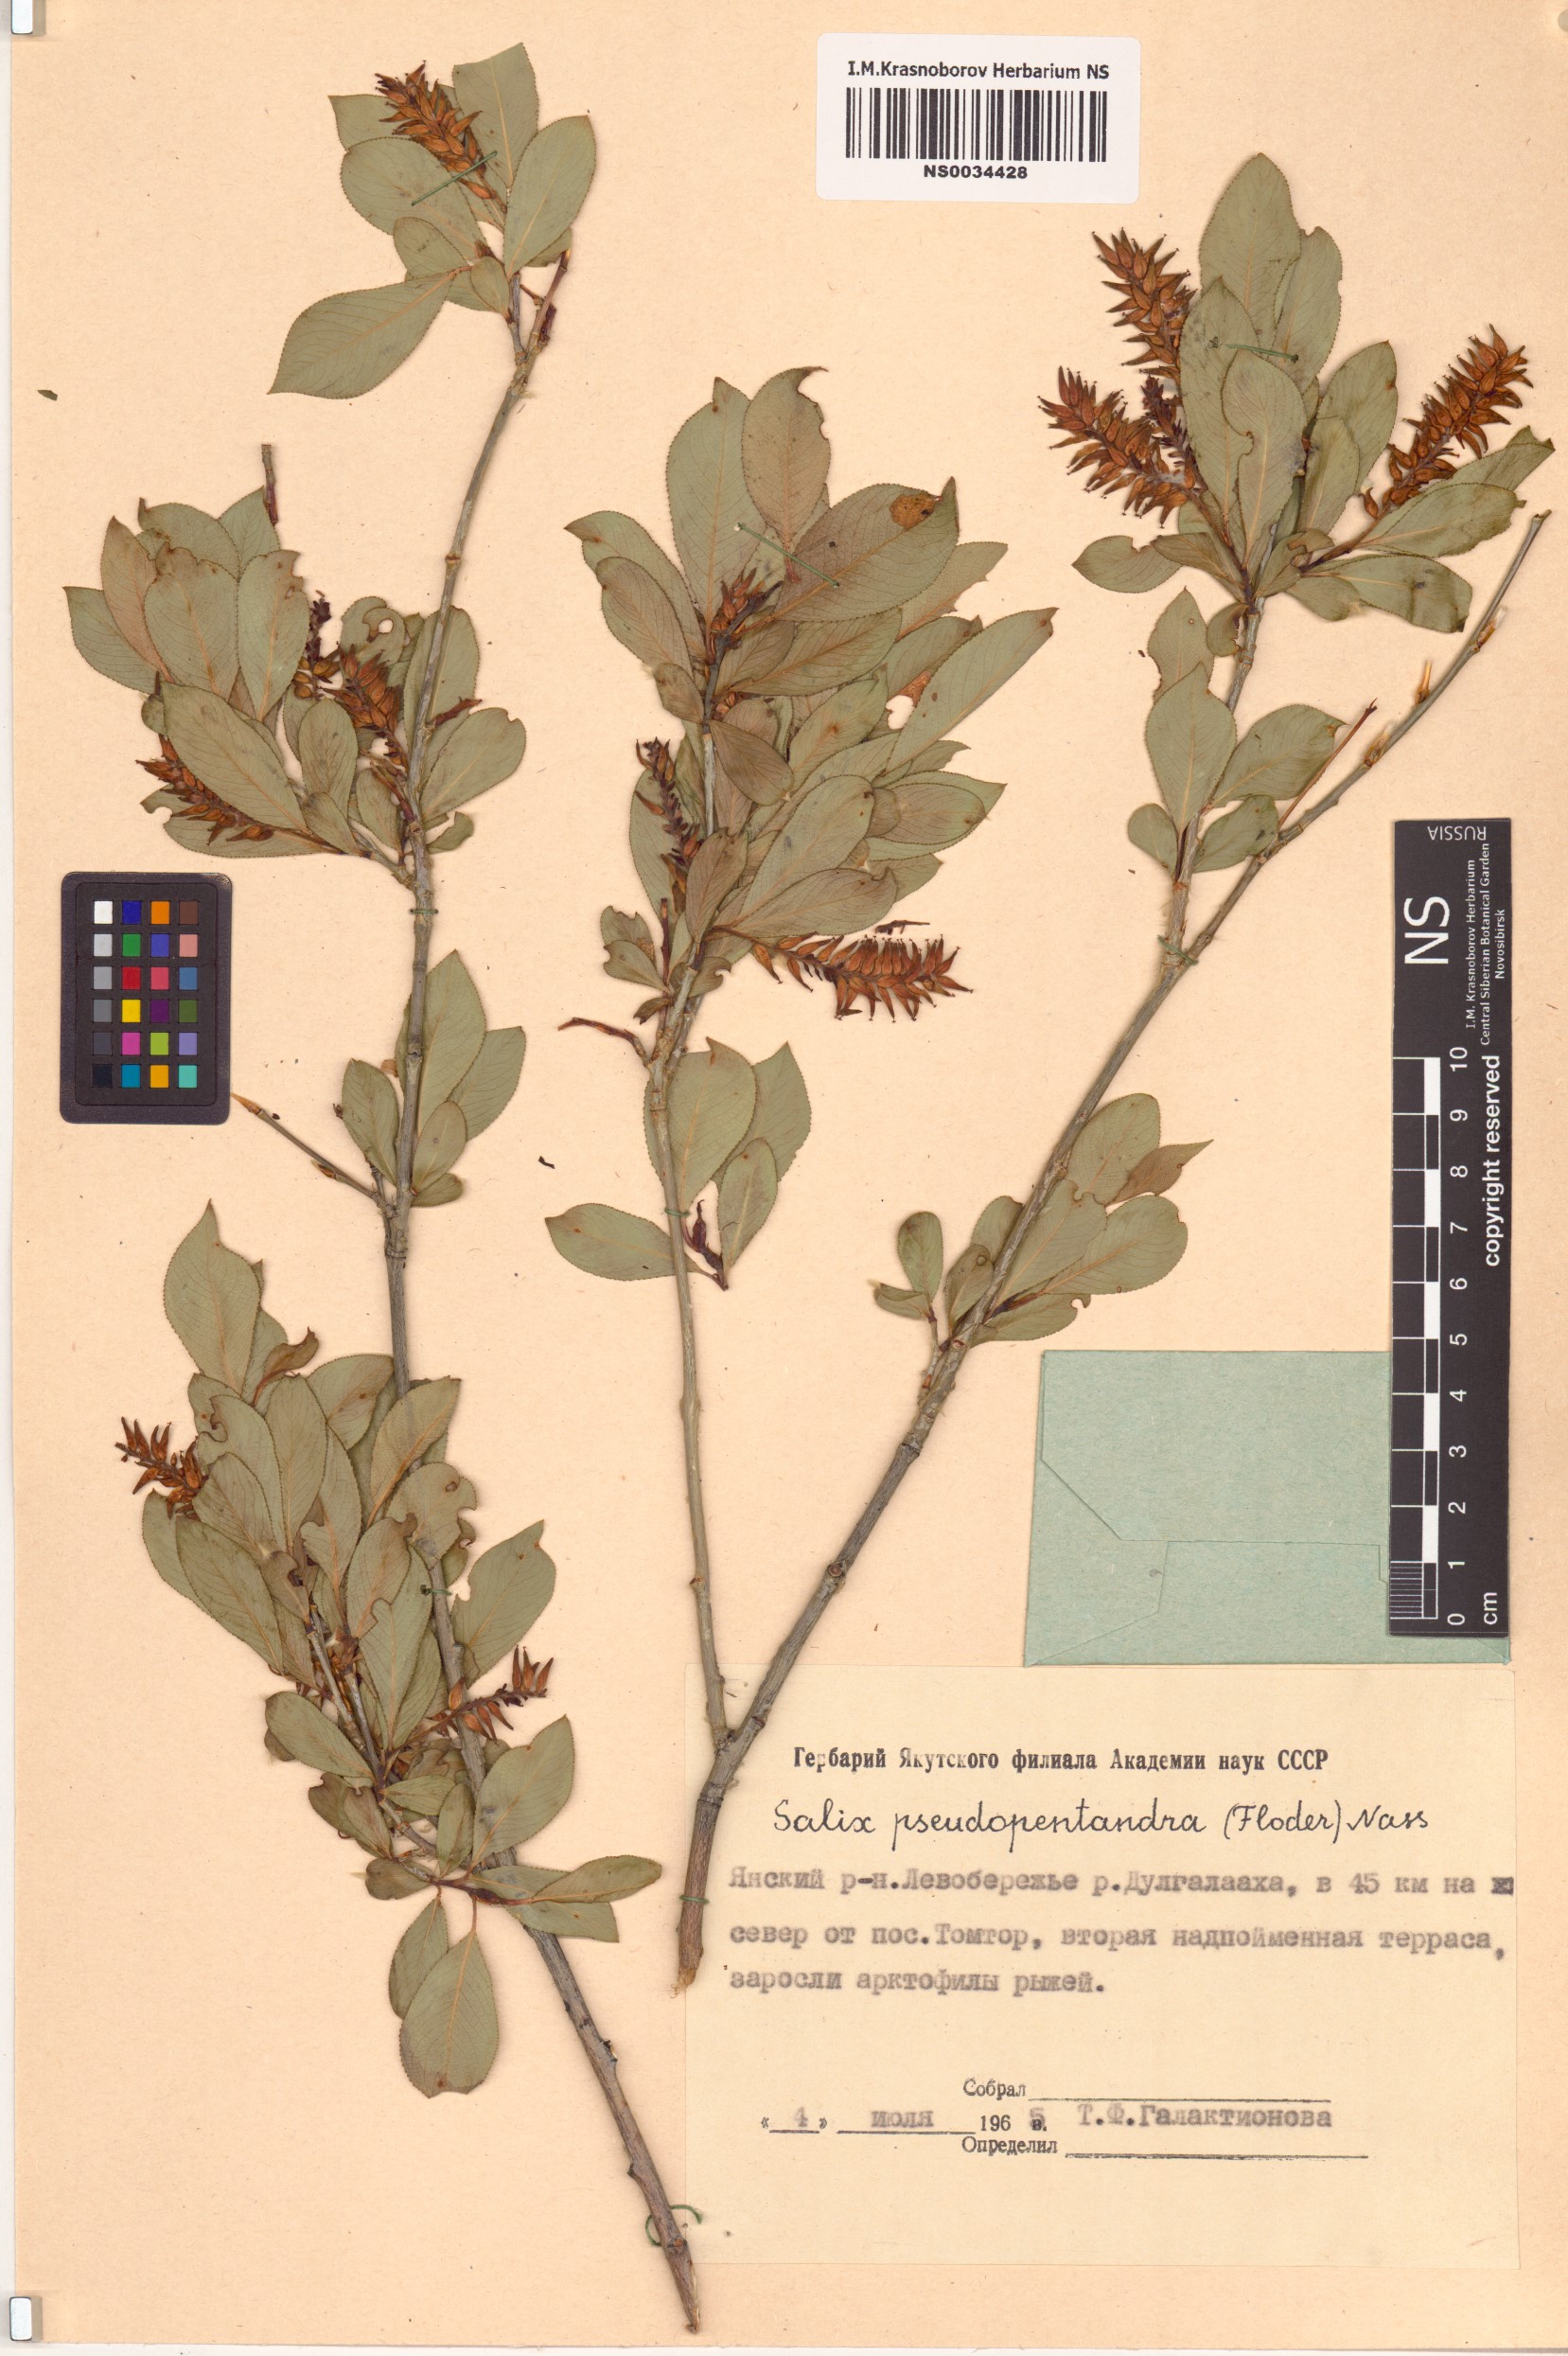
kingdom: Plantae
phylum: Tracheophyta
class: Magnoliopsida
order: Malpighiales
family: Salicaceae
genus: Salix
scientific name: Salix pseudopentandra
